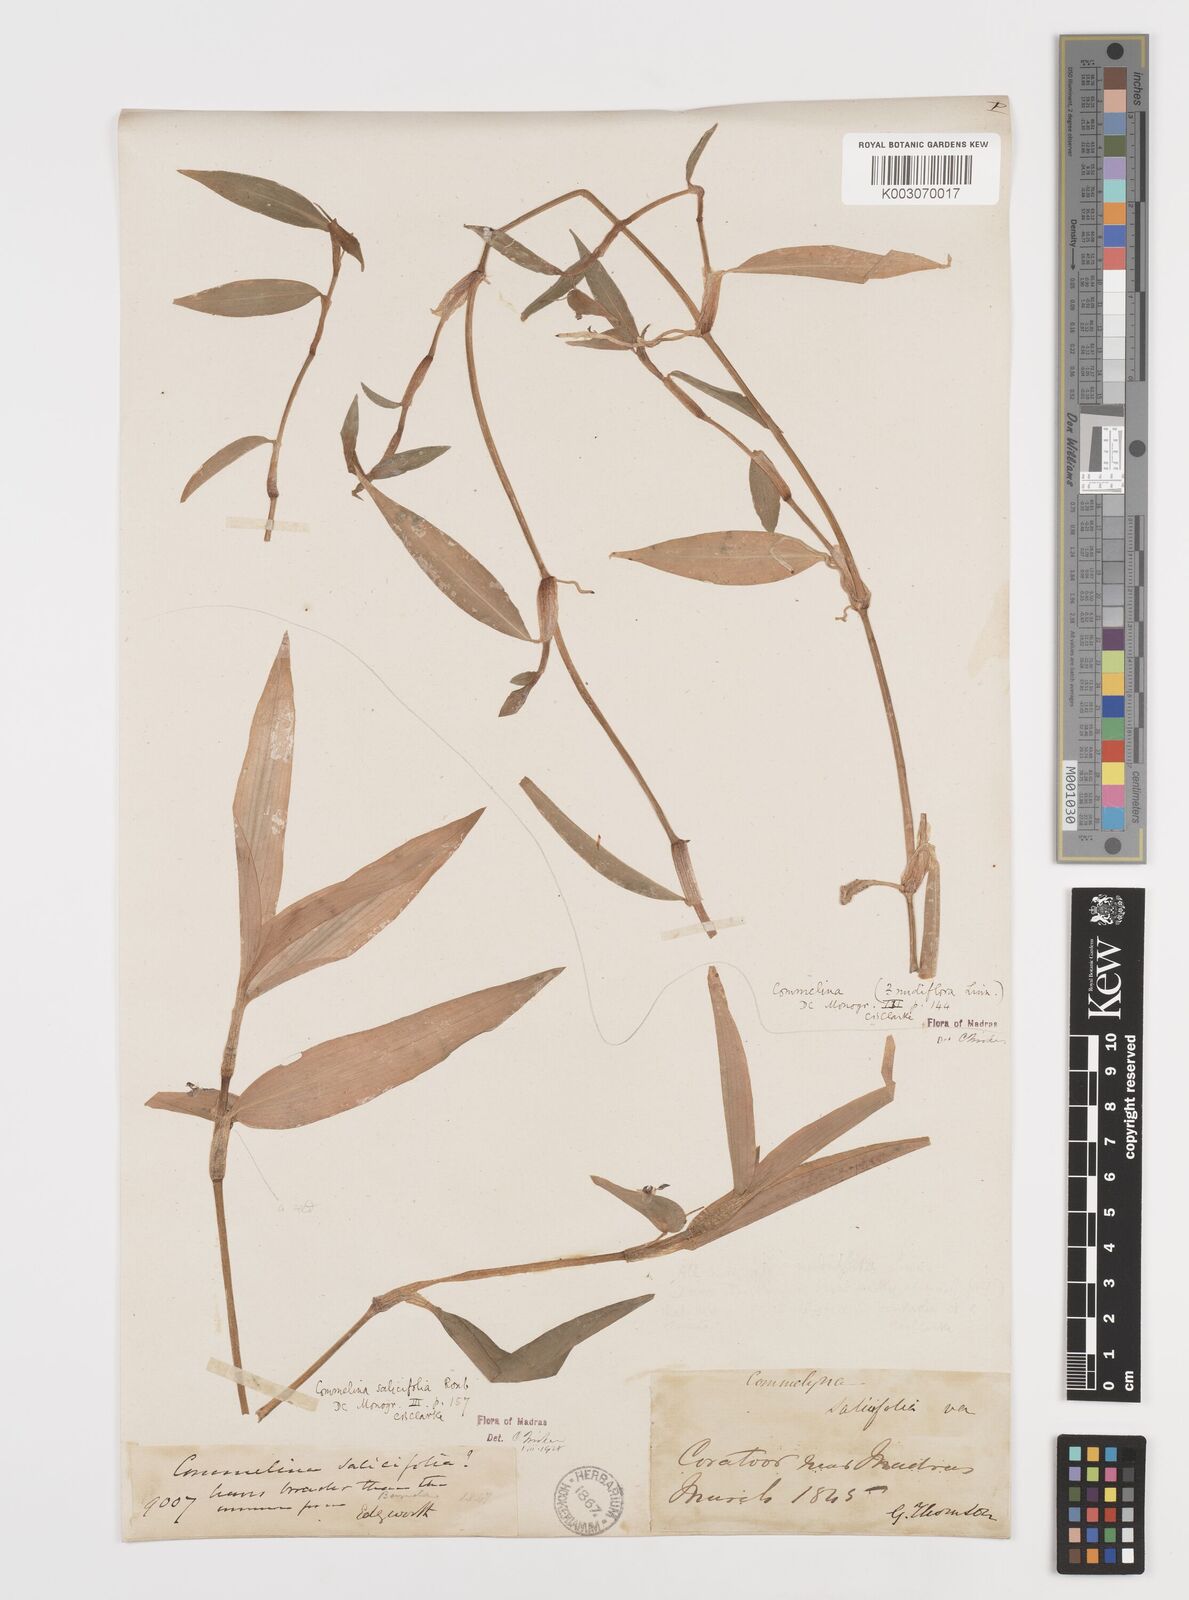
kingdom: Plantae
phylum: Tracheophyta
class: Liliopsida
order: Commelinales
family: Commelinaceae
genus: Commelina
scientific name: Commelina caroliniana
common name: Carolina dayflower
